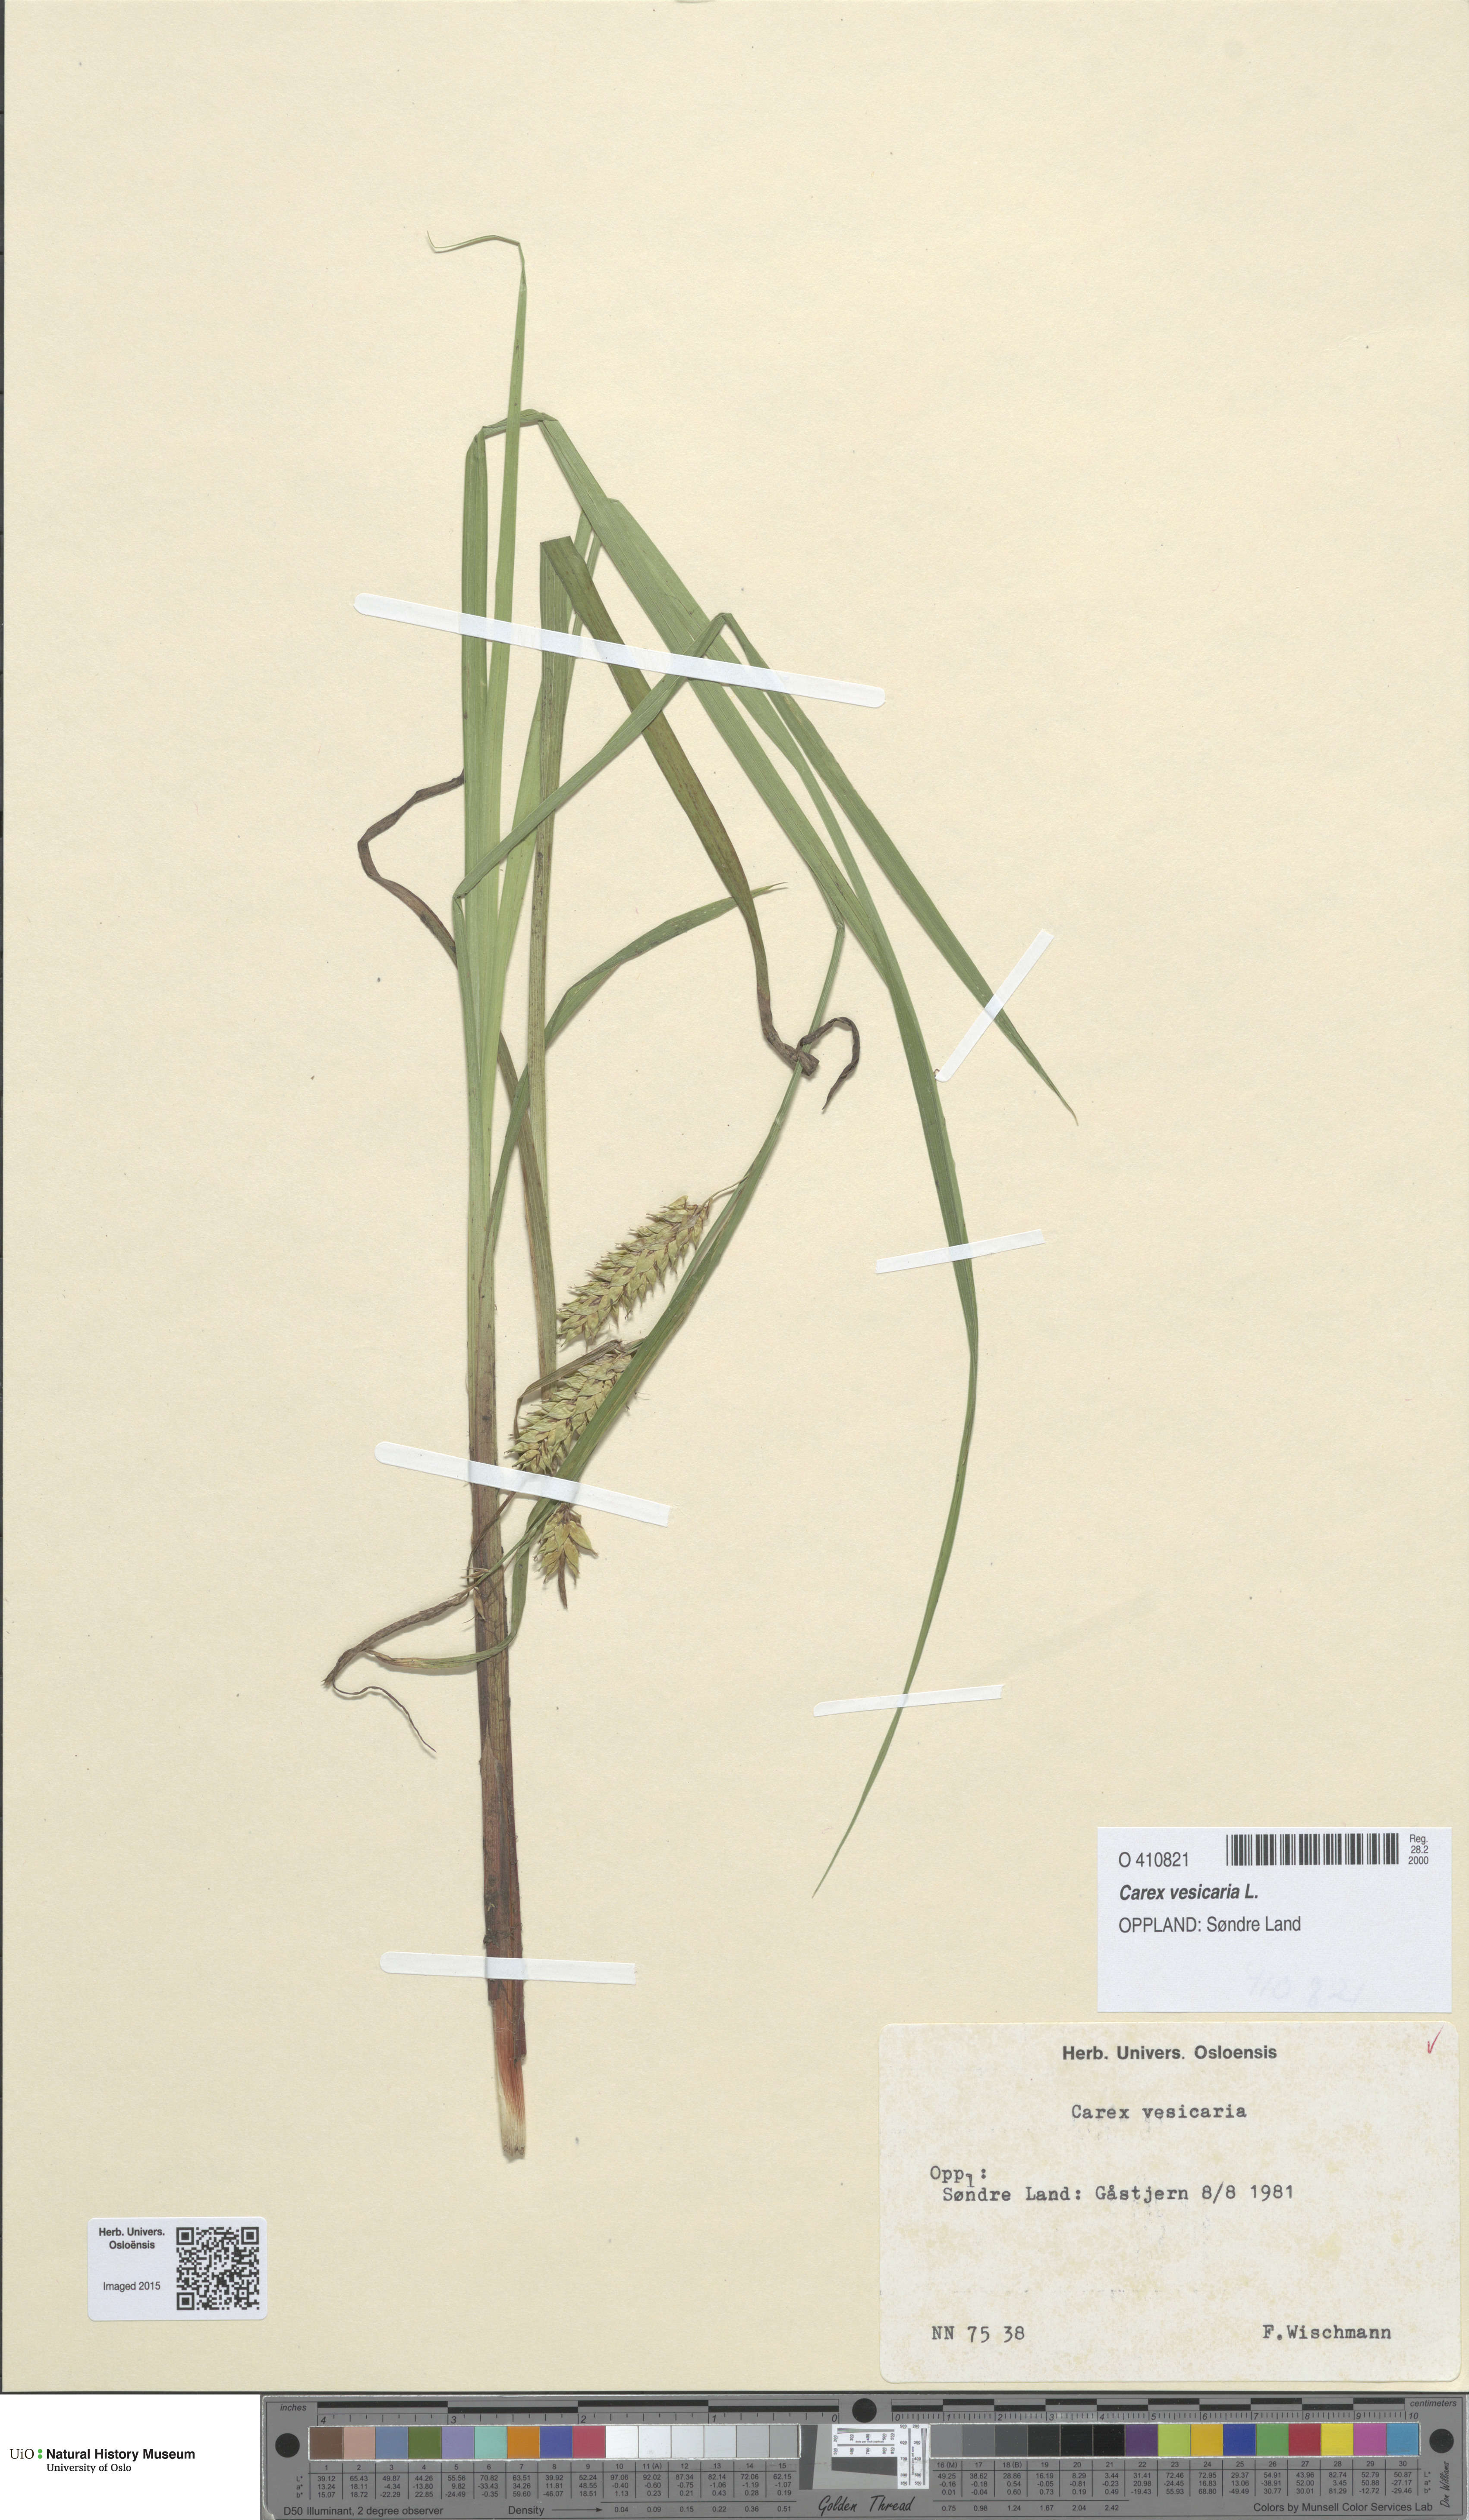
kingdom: Plantae
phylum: Tracheophyta
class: Liliopsida
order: Poales
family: Cyperaceae
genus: Carex
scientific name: Carex vesicaria
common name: Bladder-sedge
